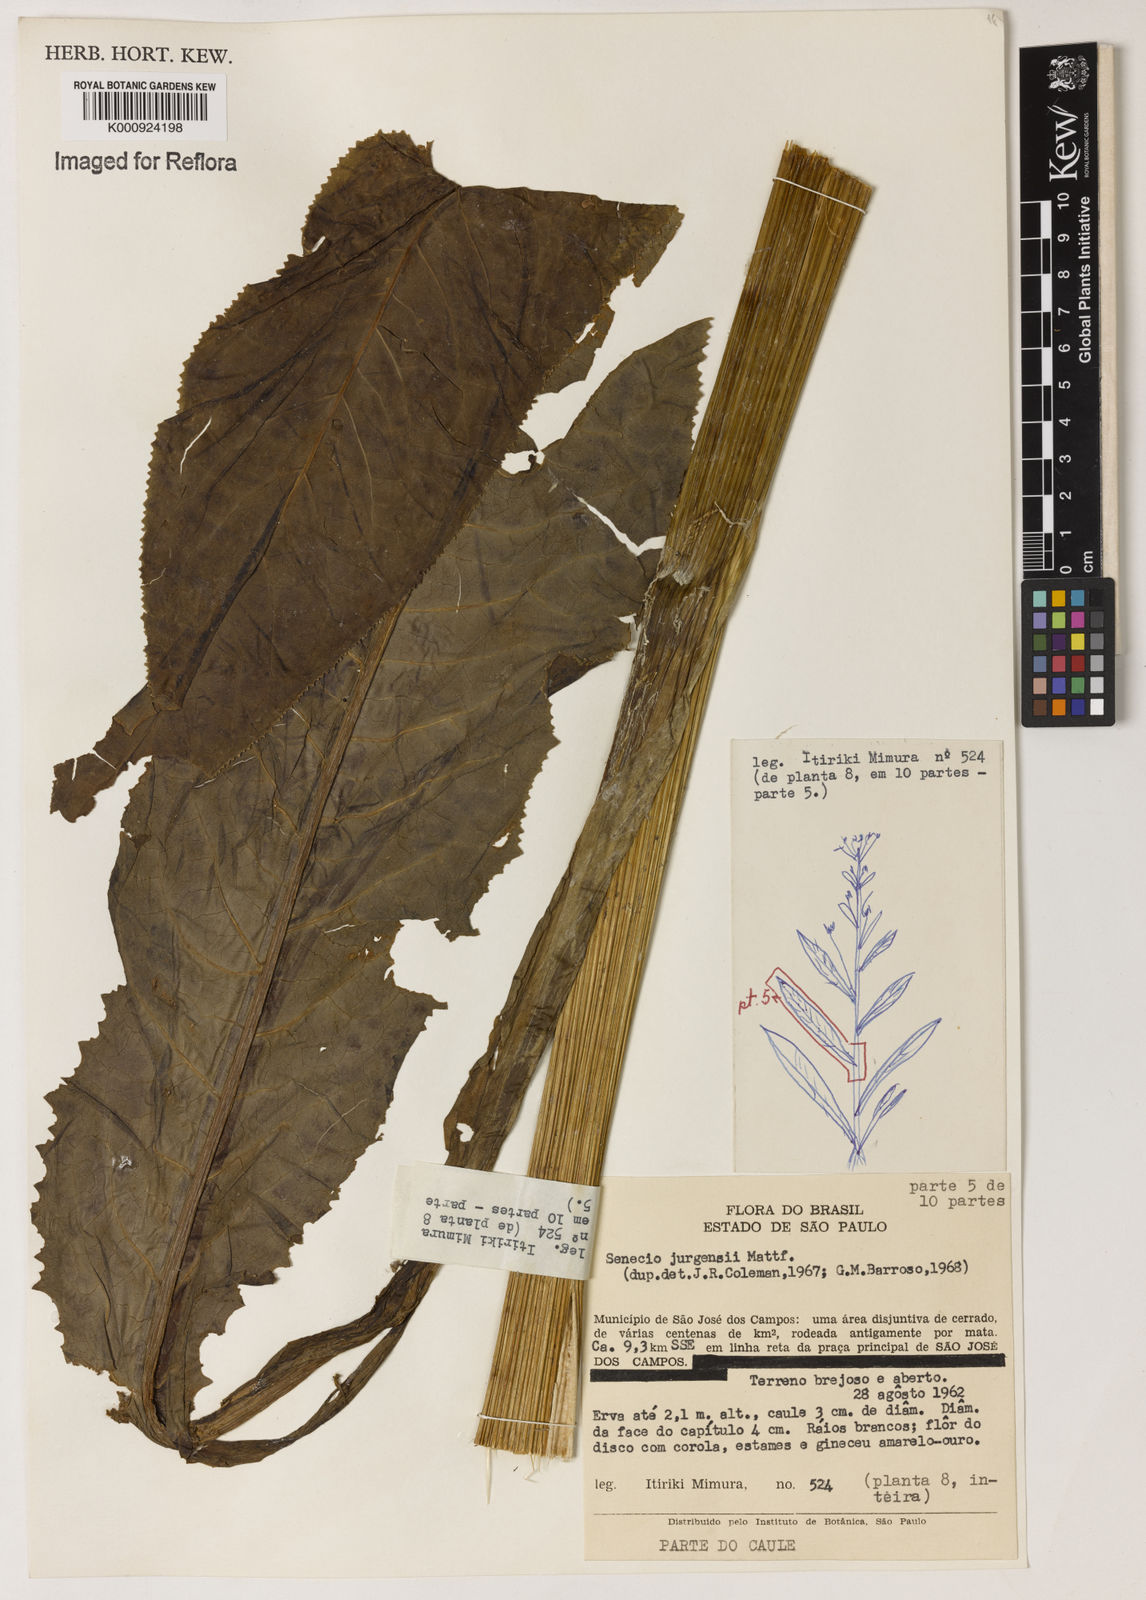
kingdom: Plantae
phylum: Tracheophyta
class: Magnoliopsida
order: Asterales
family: Asteraceae
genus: Senecio
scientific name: Senecio juergensii
